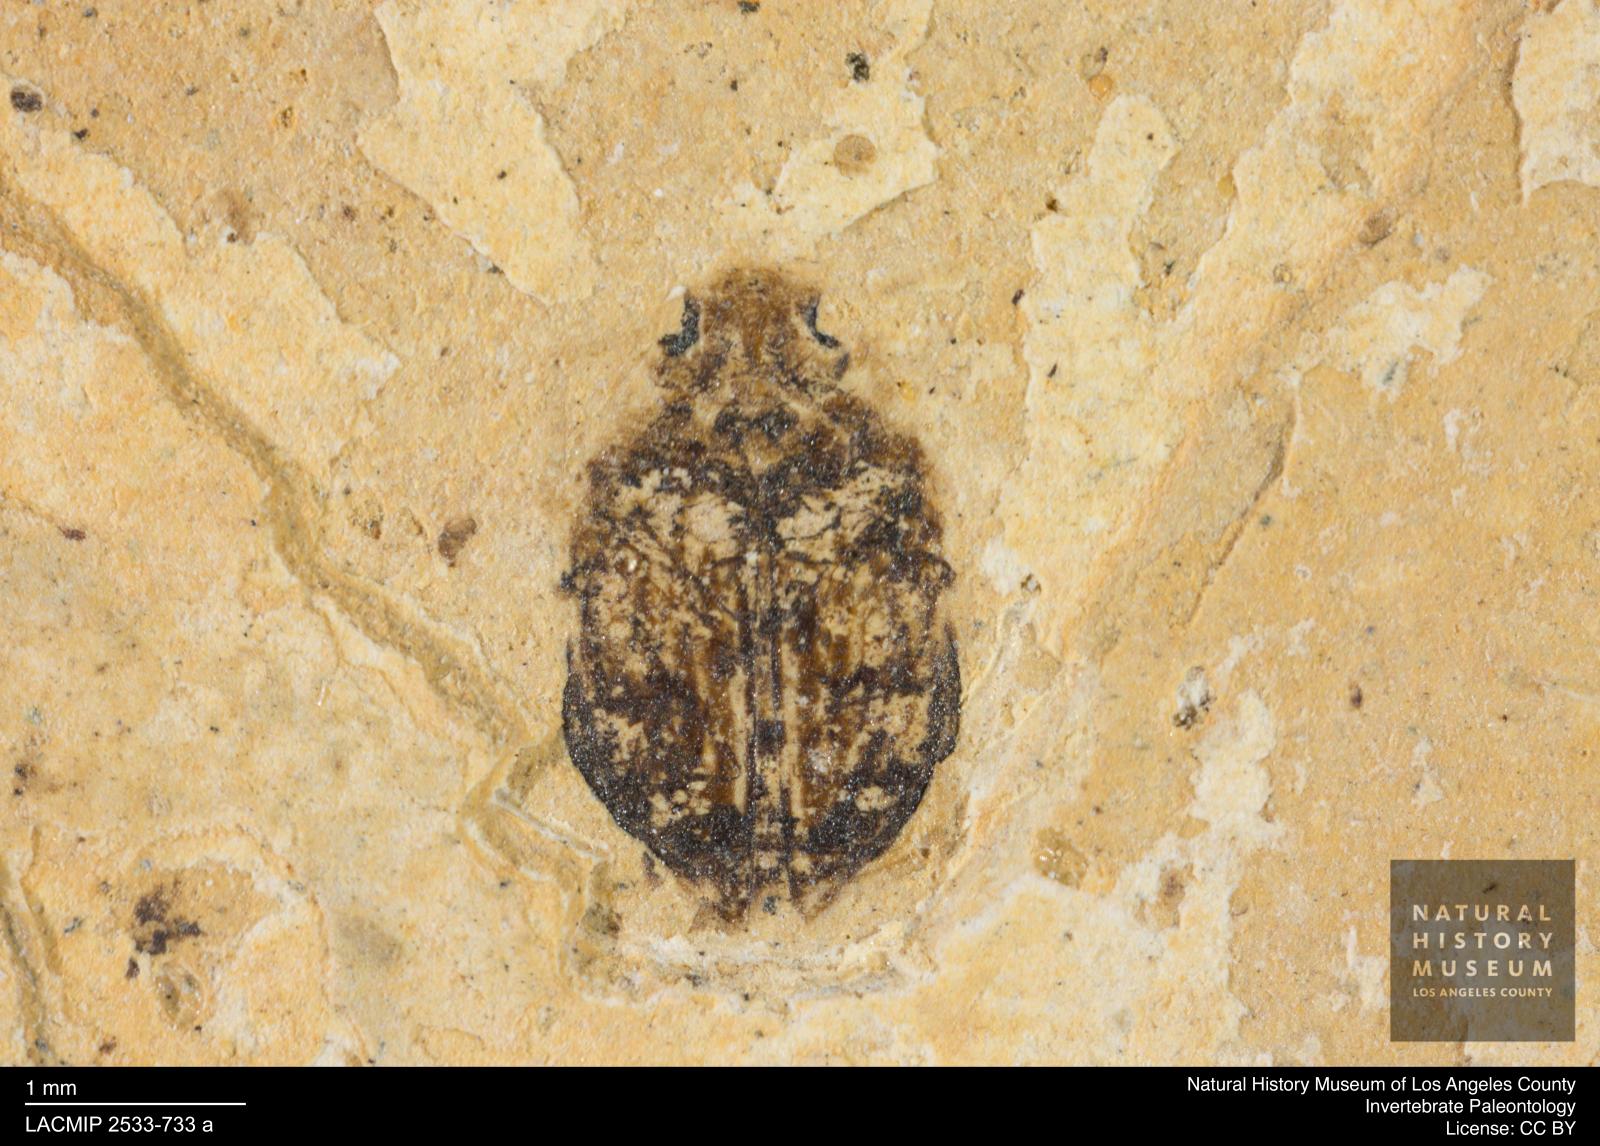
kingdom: Animalia
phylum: Arthropoda
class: Insecta
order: Coleoptera
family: Dytiscidae
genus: Oreodytes
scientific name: Oreodytes cryptolineatus
